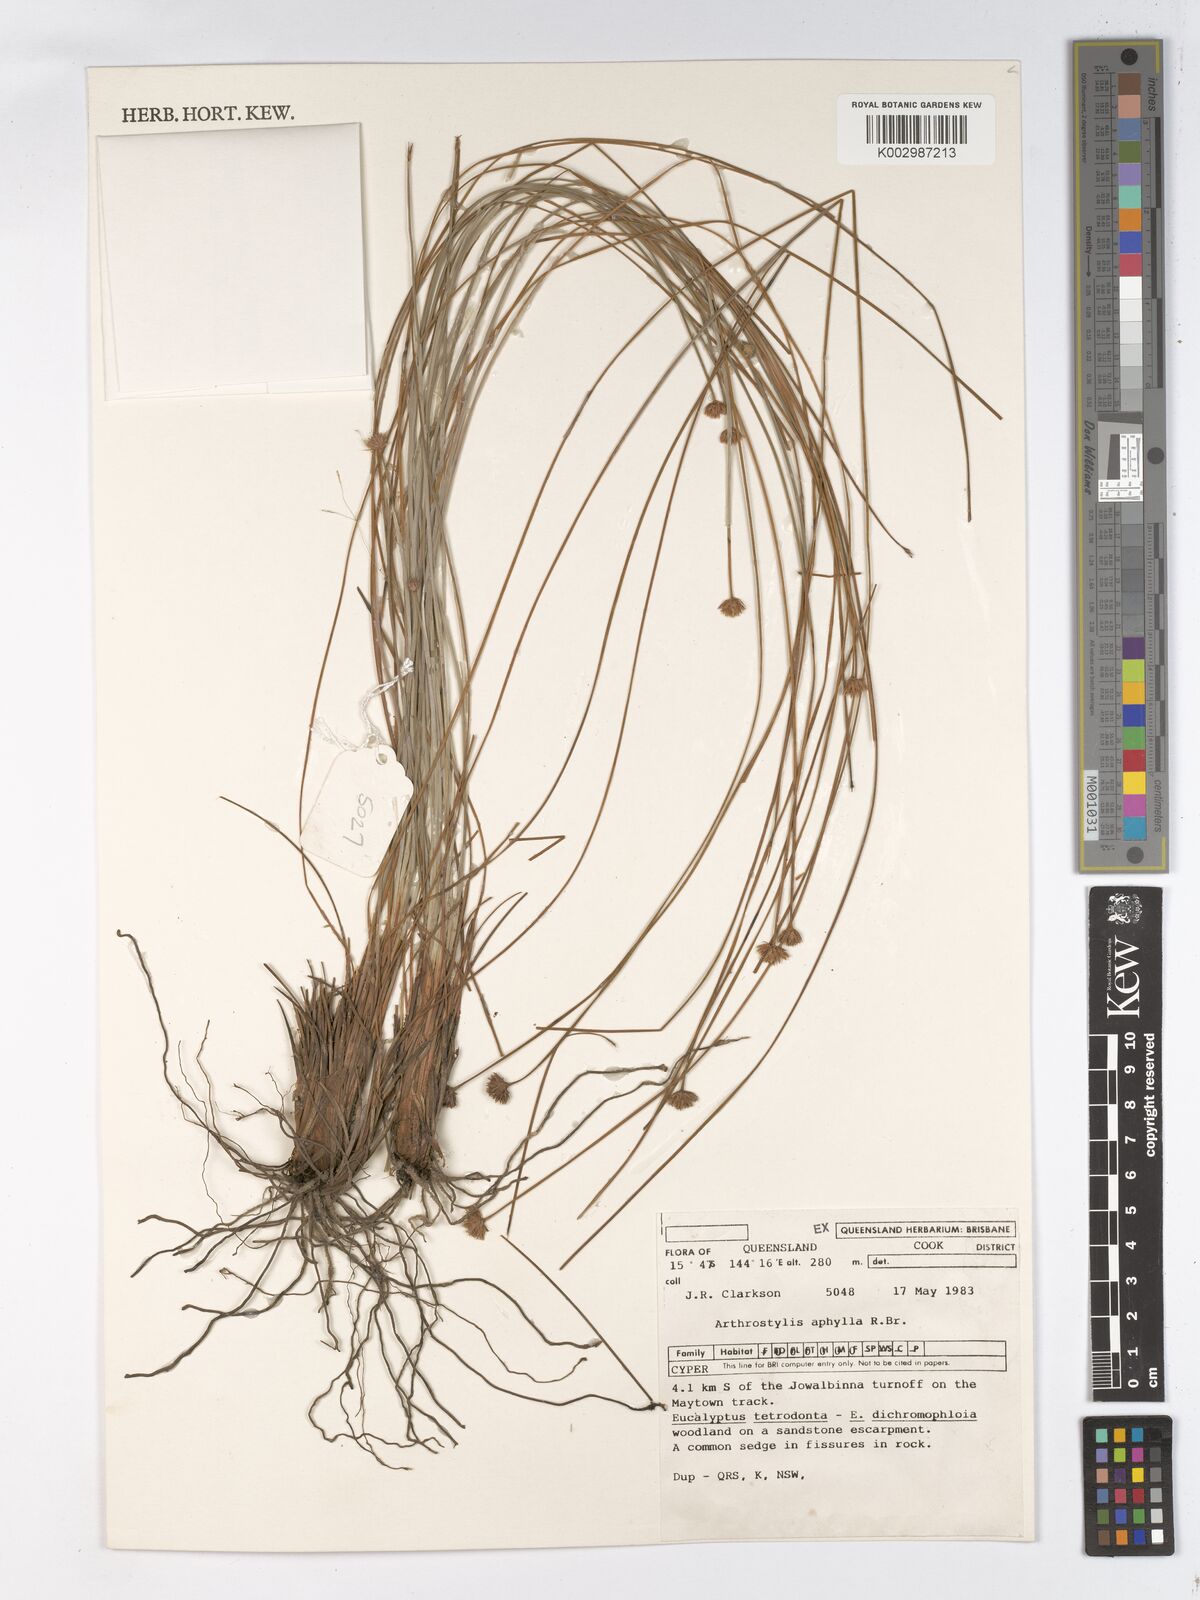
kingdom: Plantae
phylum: Tracheophyta
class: Liliopsida
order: Poales
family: Cyperaceae
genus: Arthrostylis
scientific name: Arthrostylis aphylla
